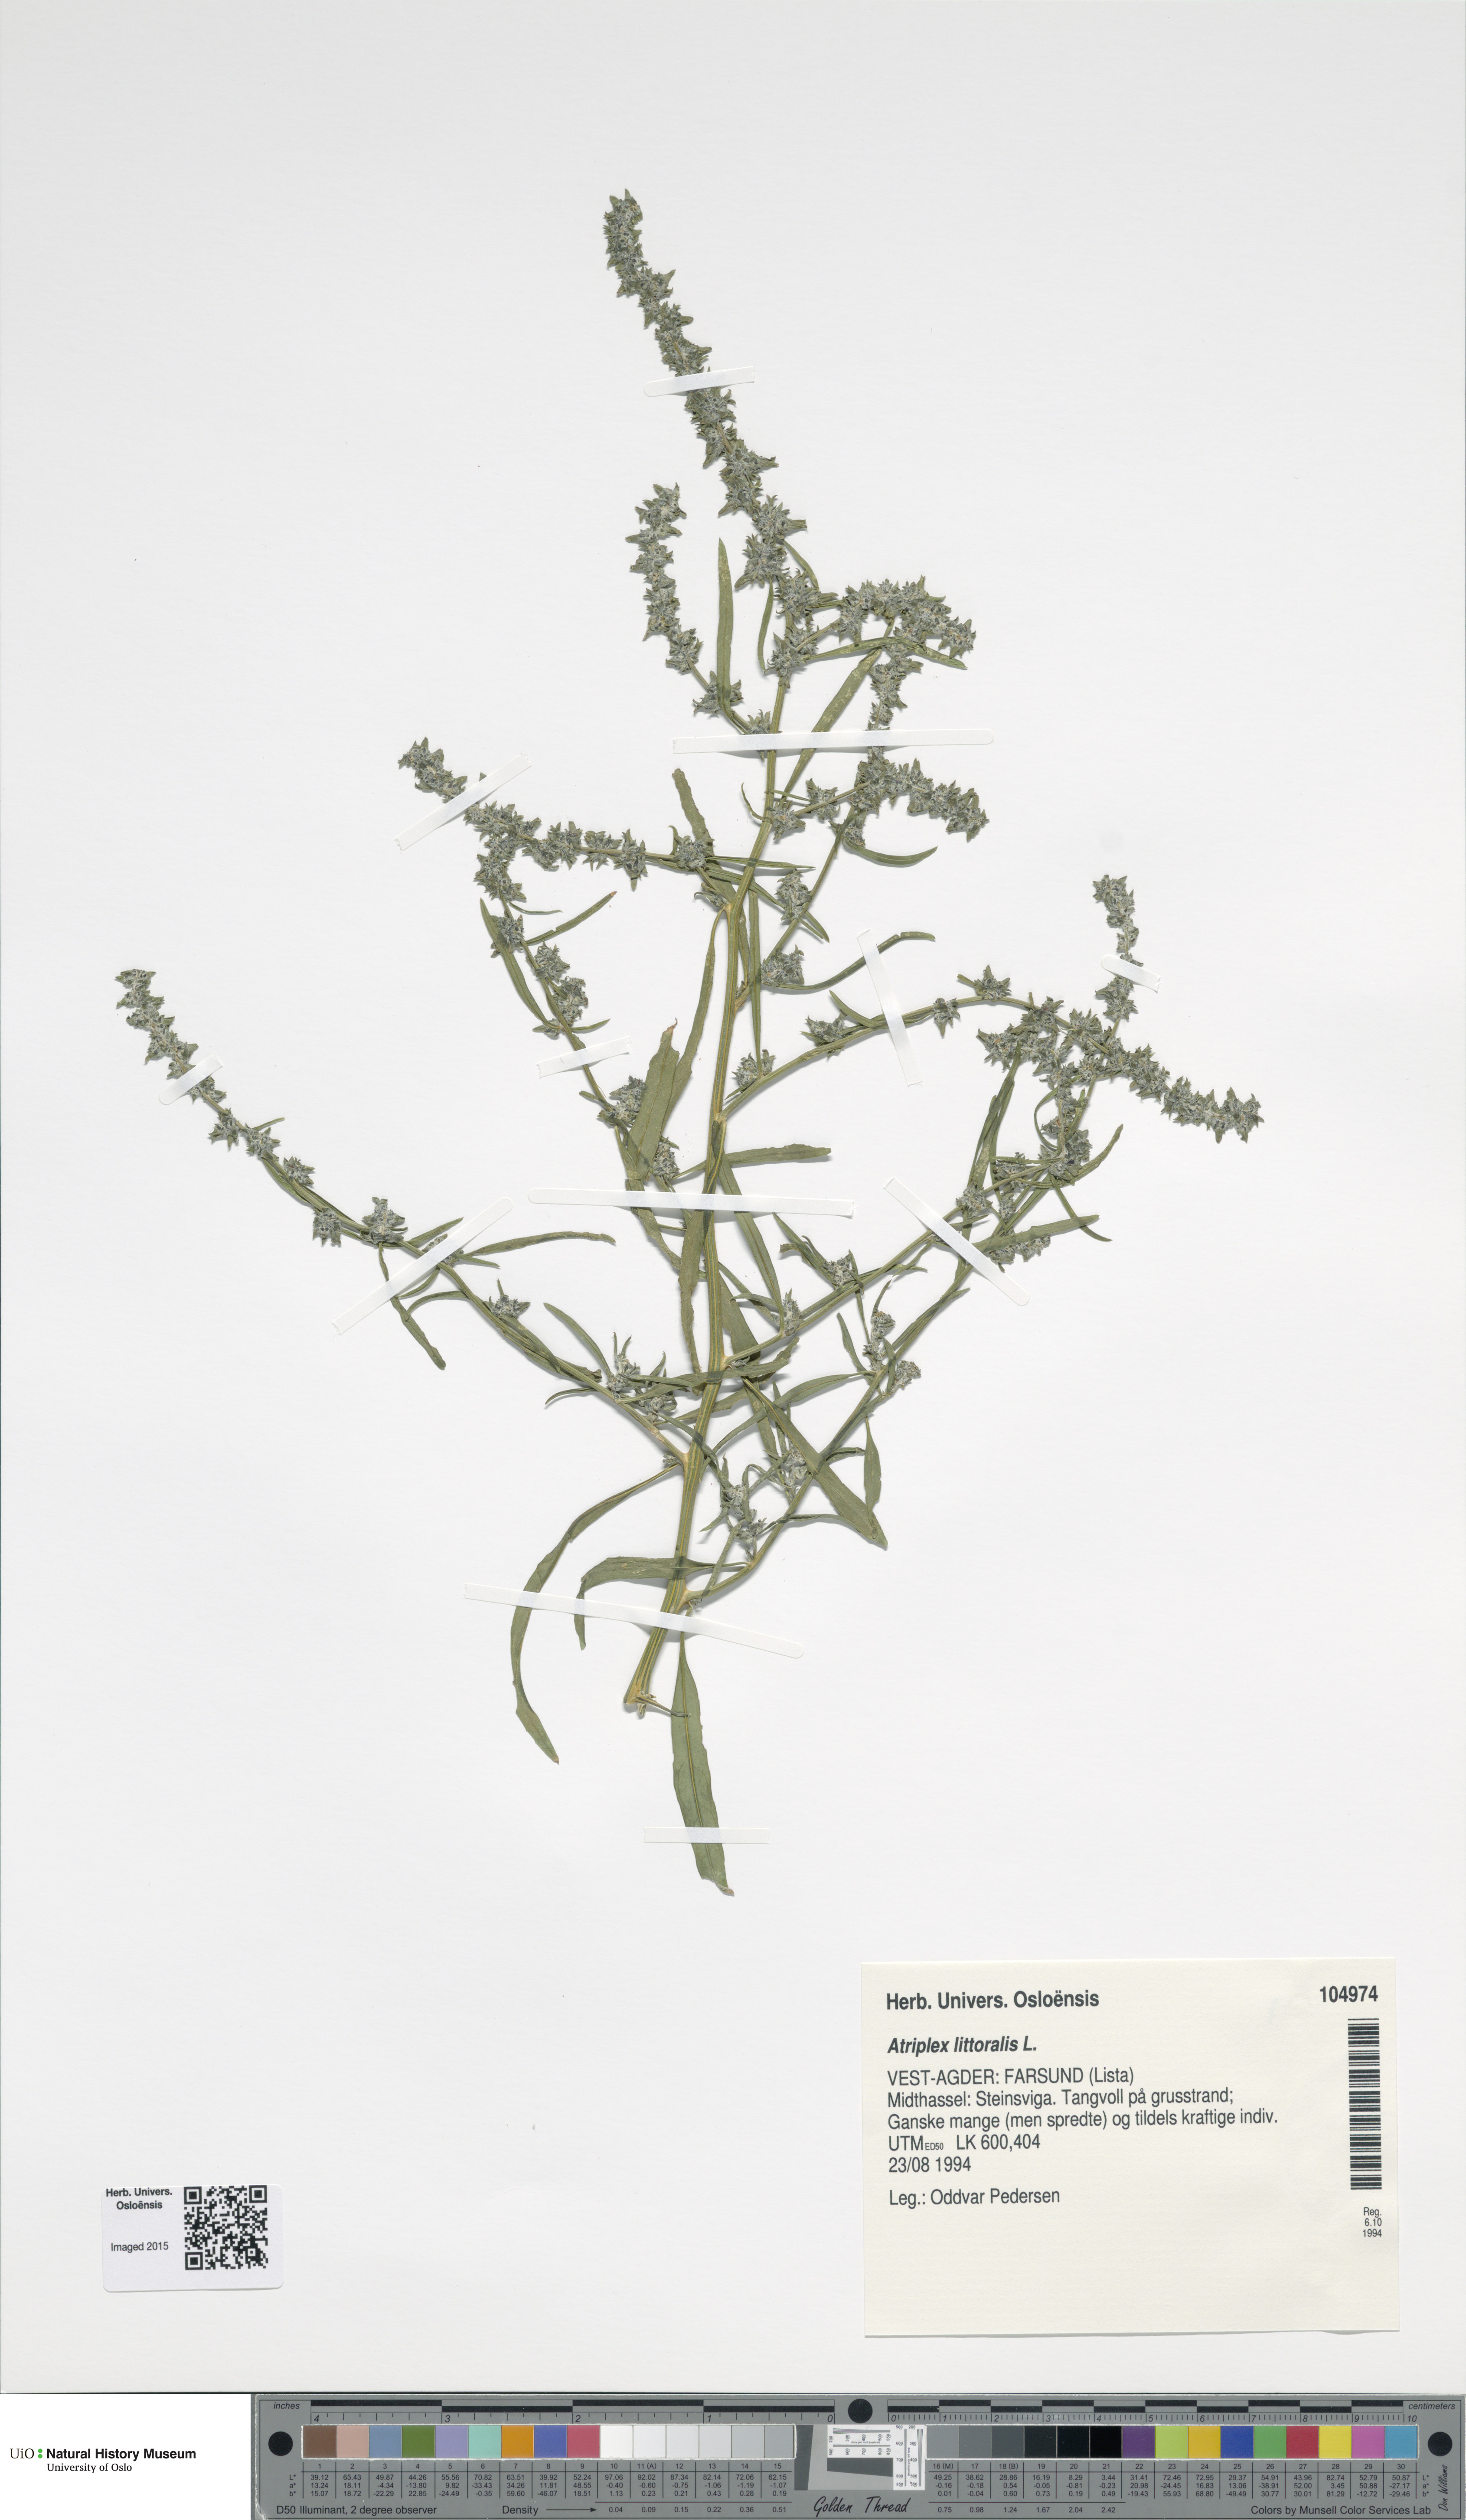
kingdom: Plantae
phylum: Tracheophyta
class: Magnoliopsida
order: Caryophyllales
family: Amaranthaceae
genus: Atriplex
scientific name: Atriplex littoralis
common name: Grass-leaved orache
